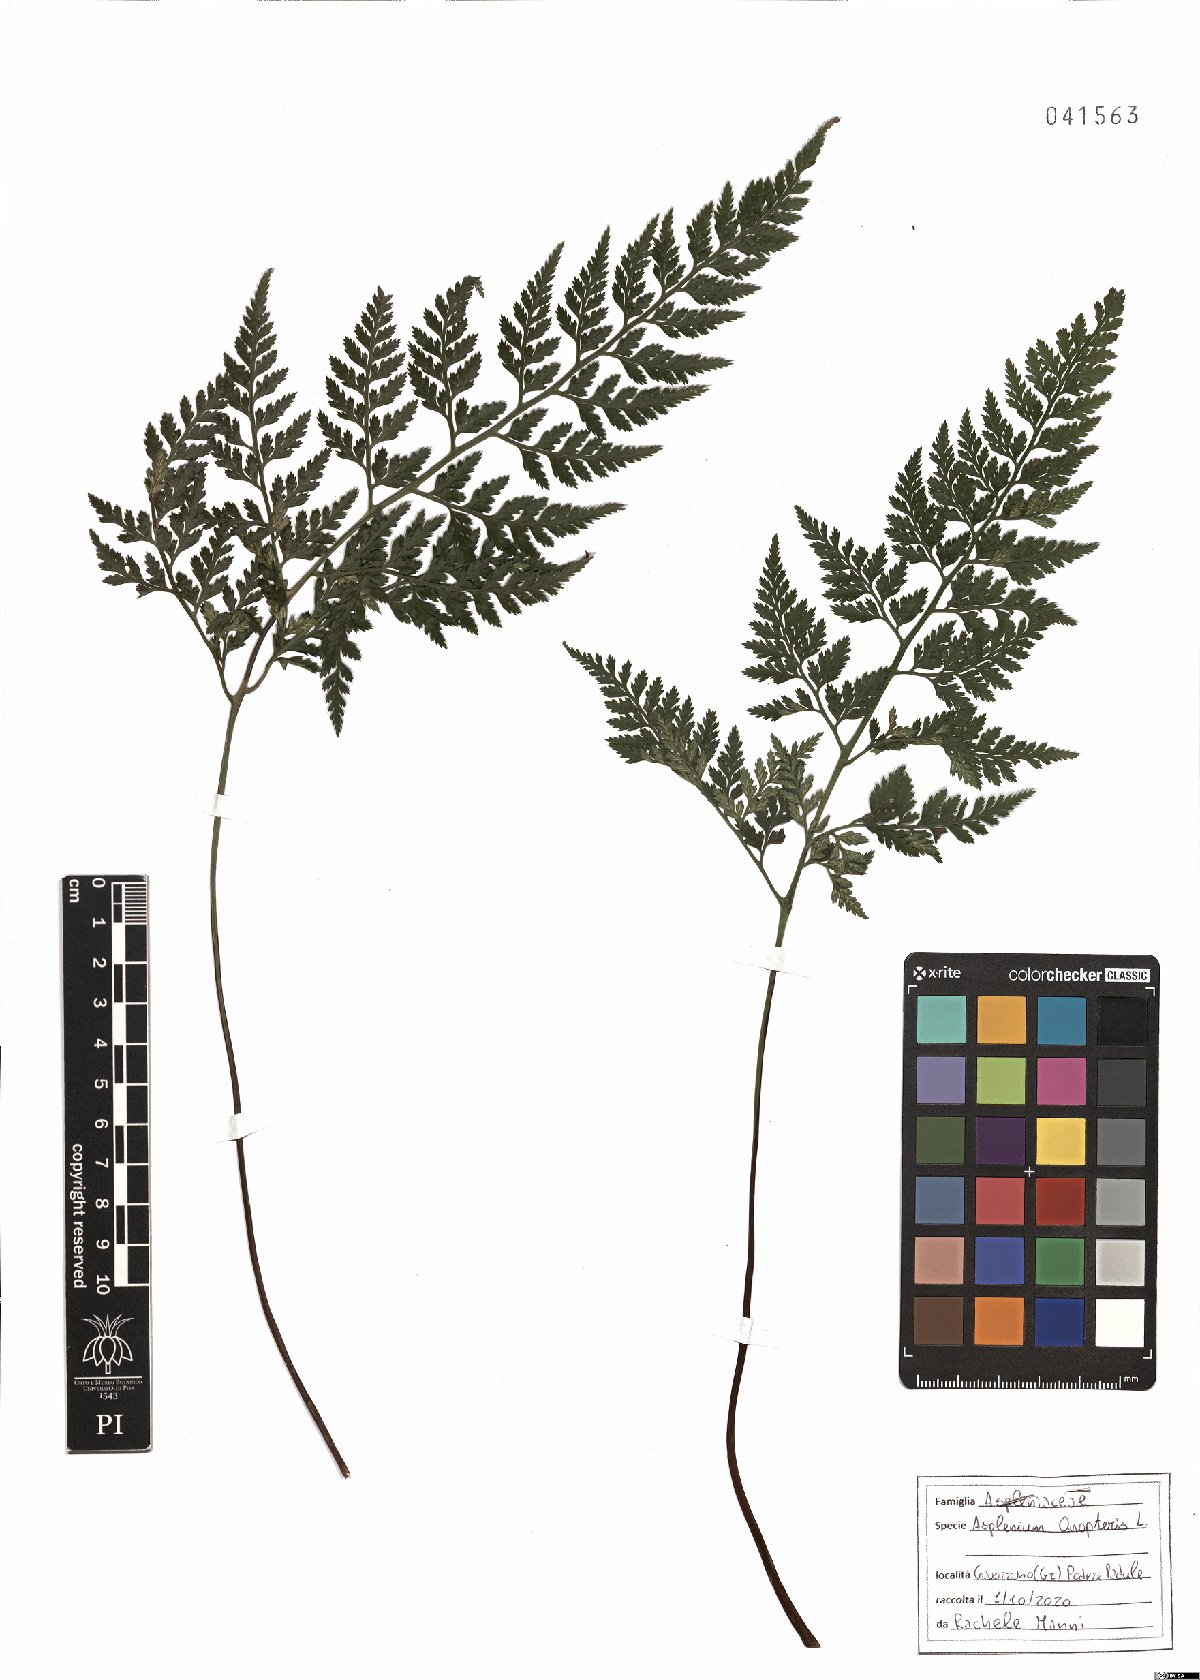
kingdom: Plantae
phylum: Tracheophyta
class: Polypodiopsida
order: Polypodiales
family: Aspleniaceae
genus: Asplenium
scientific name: Asplenium onopteris
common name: Irish spleenwort
